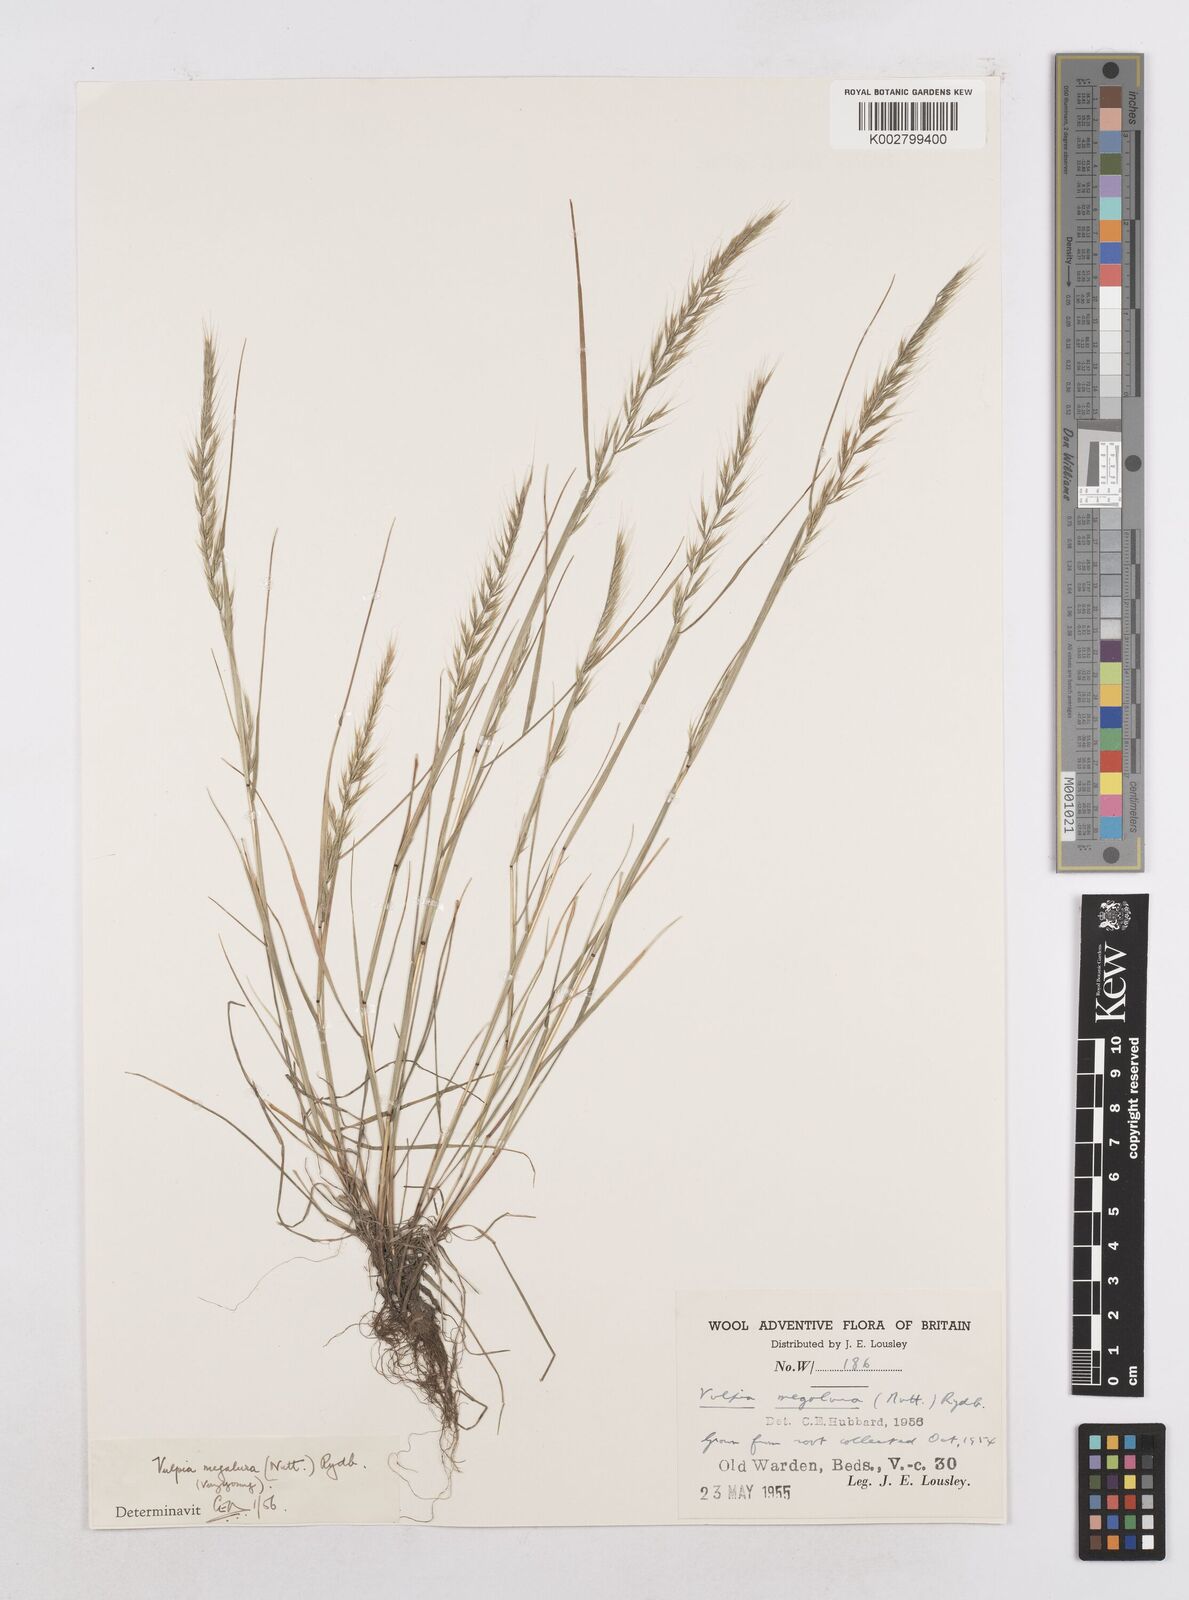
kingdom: Plantae
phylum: Tracheophyta
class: Liliopsida
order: Poales
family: Poaceae
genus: Festuca
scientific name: Festuca myuros
